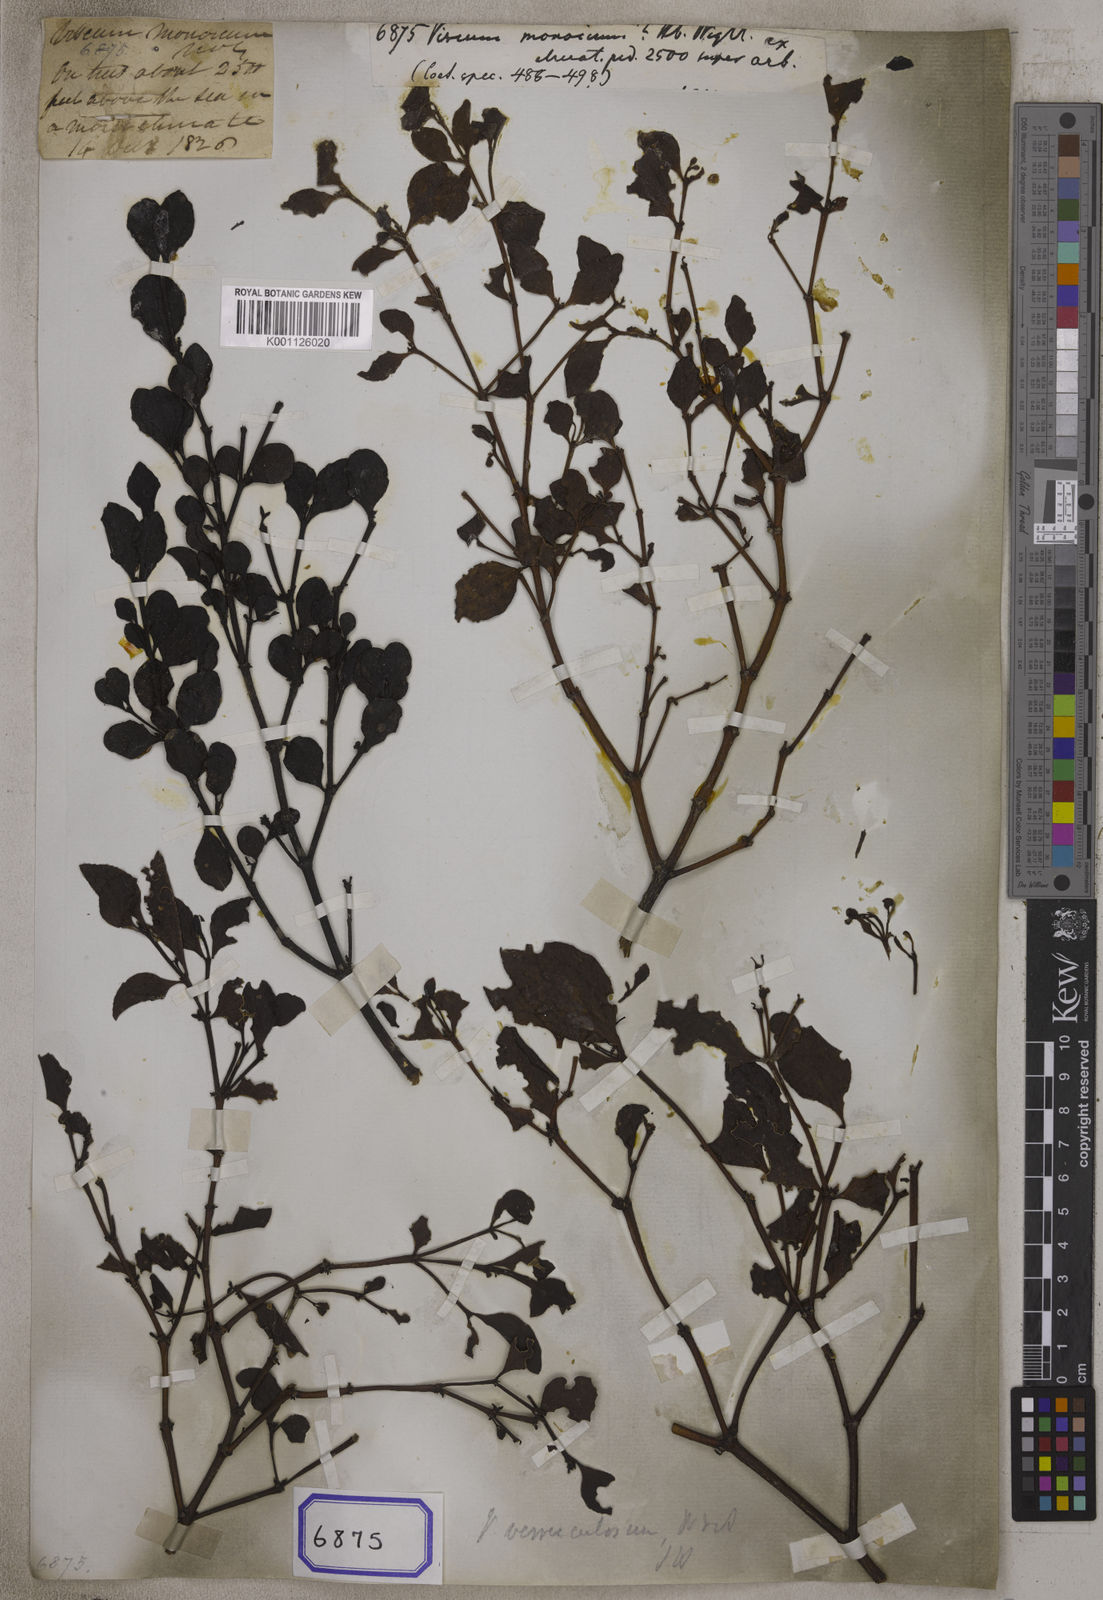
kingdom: Plantae
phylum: Tracheophyta
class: Magnoliopsida
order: Santalales
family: Viscaceae
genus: Viscum
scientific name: Viscum
